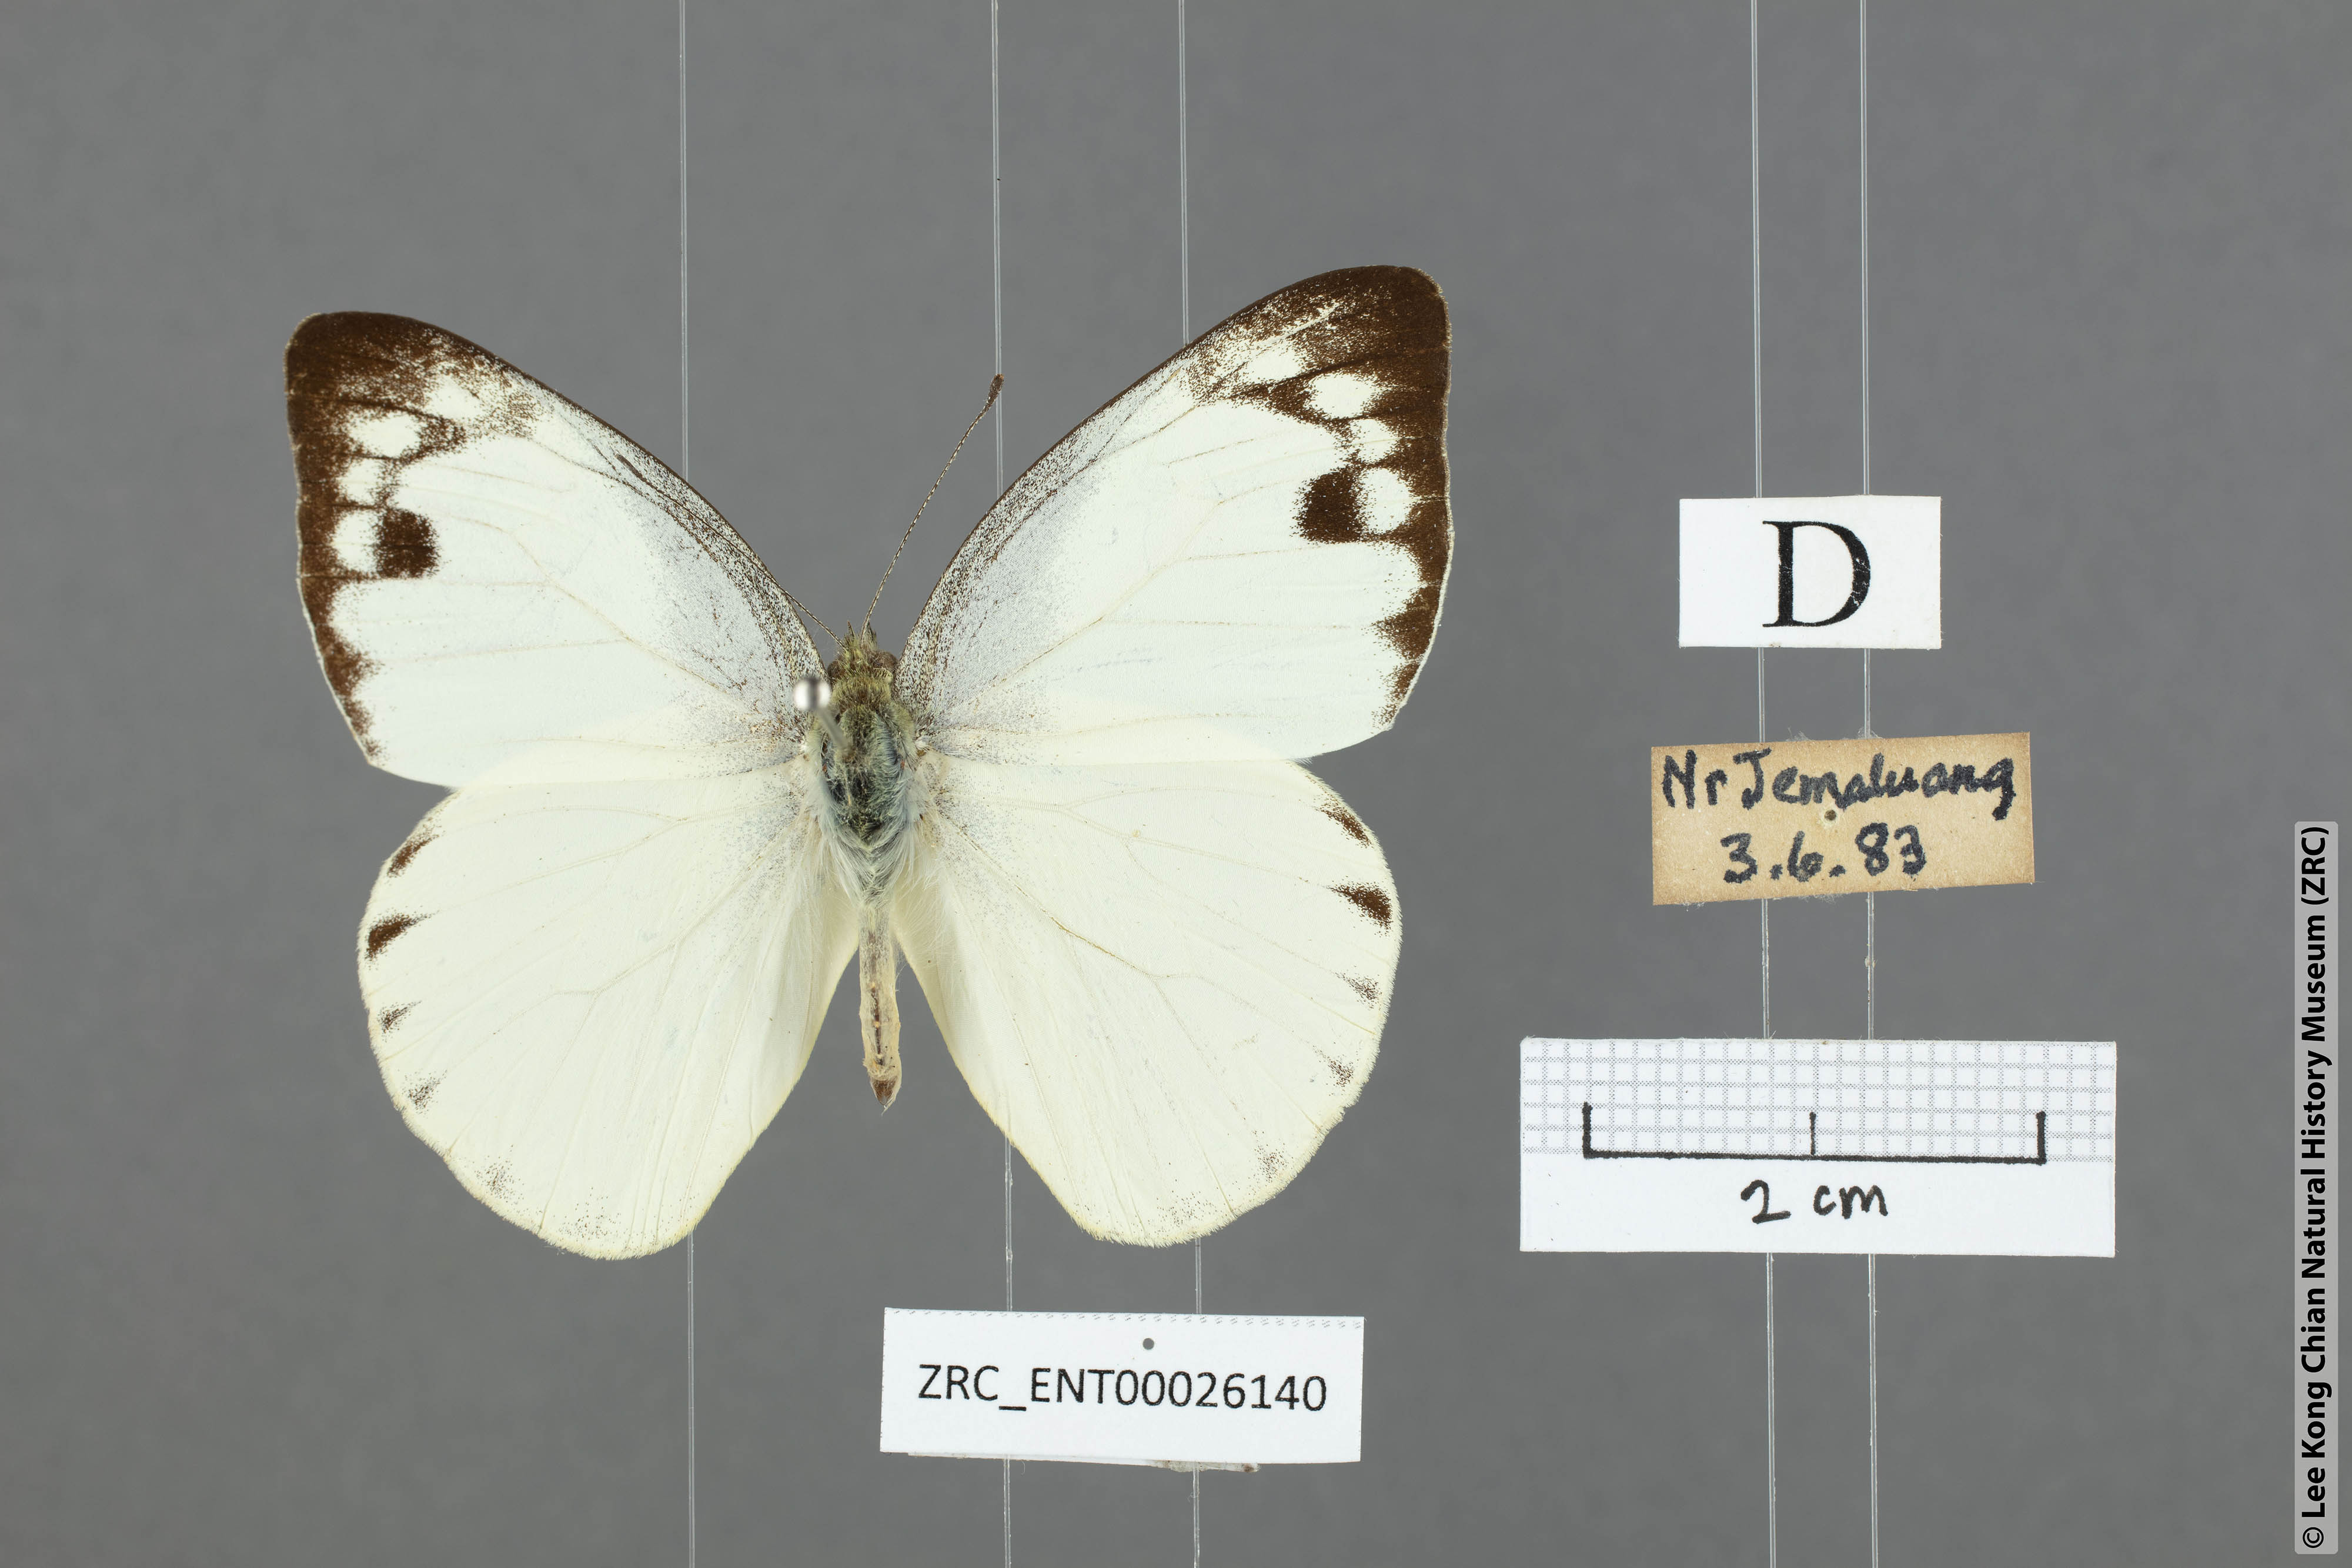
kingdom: Animalia
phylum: Arthropoda
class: Insecta
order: Lepidoptera
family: Pieridae
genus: Appias
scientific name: Appias paulina
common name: Ceylon lesser albatross
